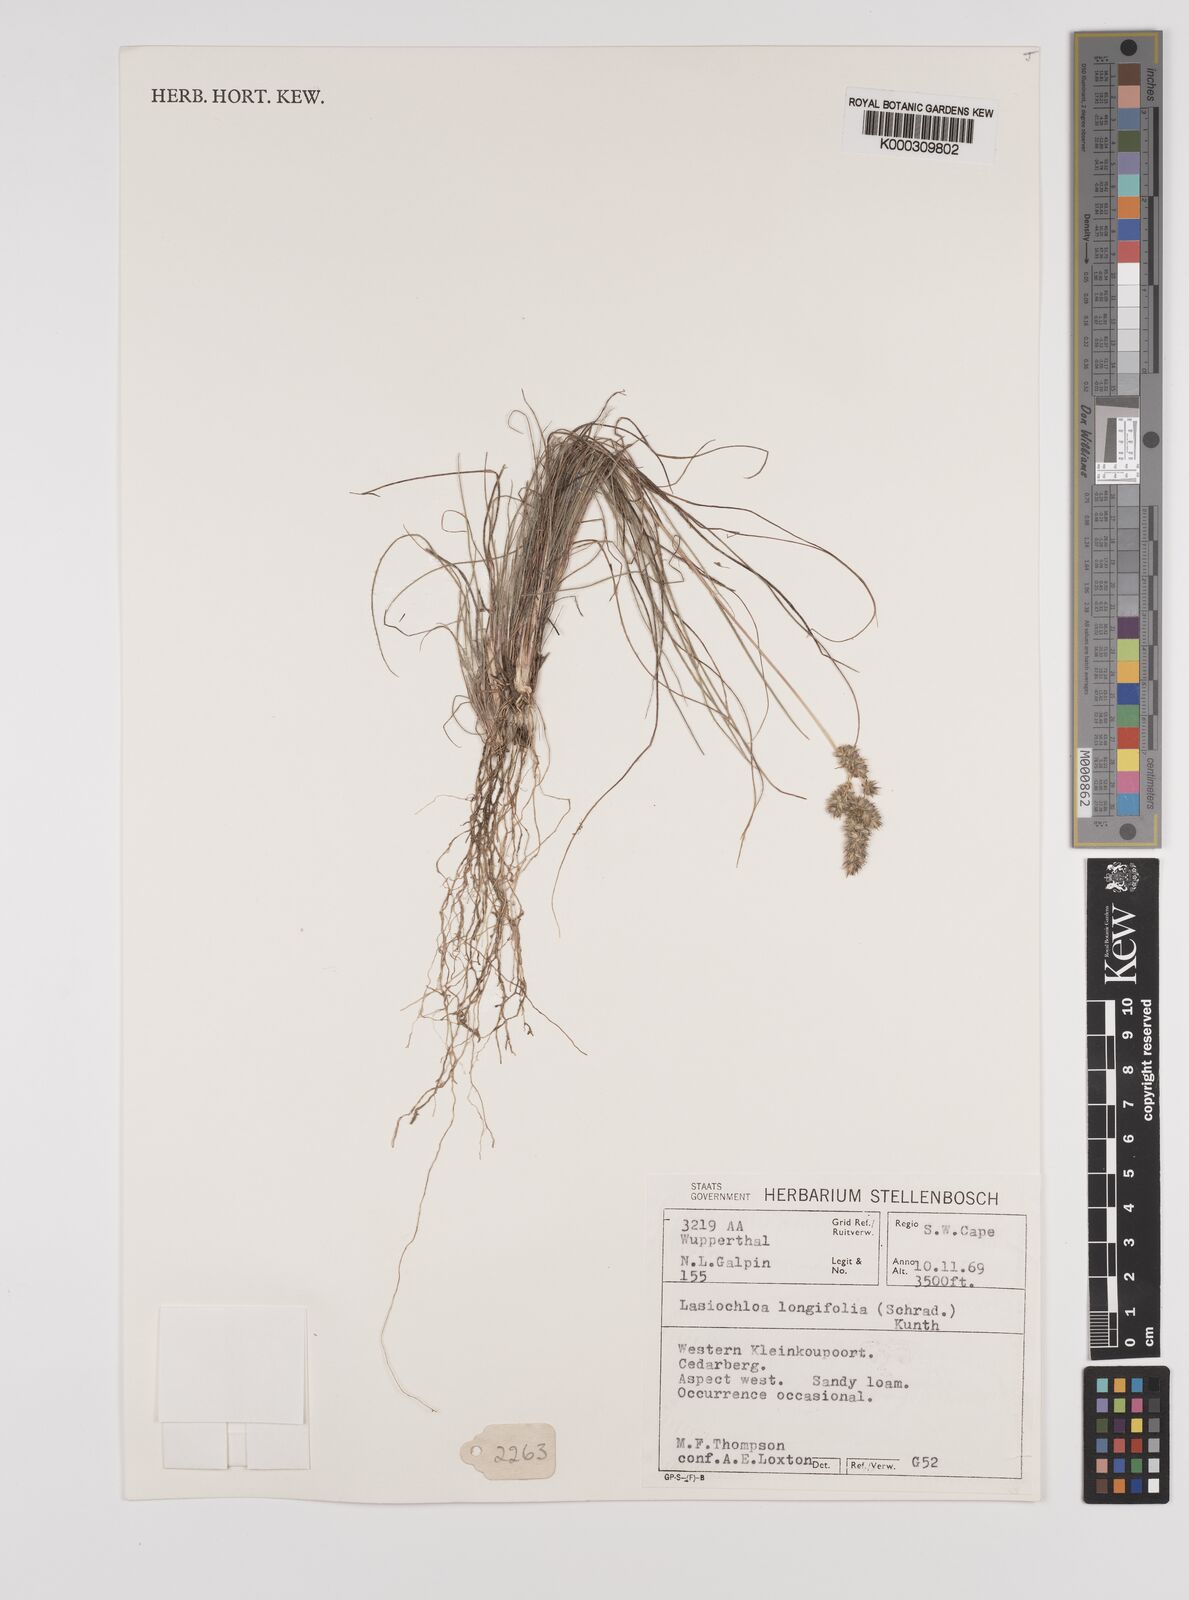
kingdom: Plantae
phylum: Tracheophyta
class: Liliopsida
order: Poales
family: Poaceae
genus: Tribolium
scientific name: Tribolium hispidum
